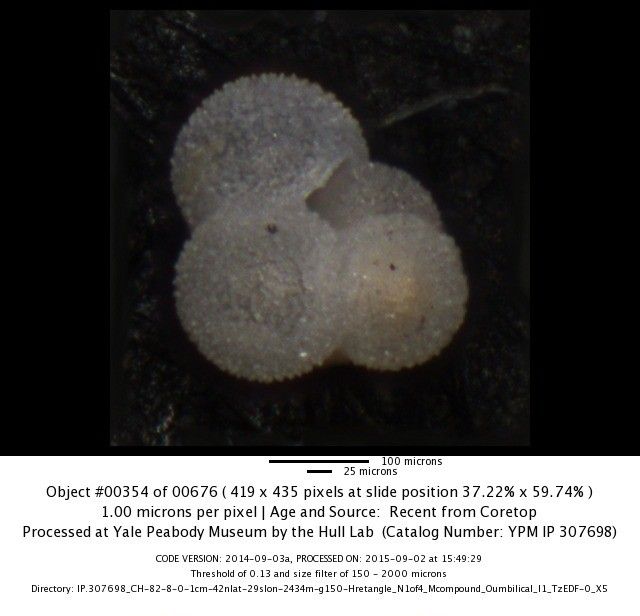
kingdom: Chromista
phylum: Foraminifera
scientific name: Foraminifera
